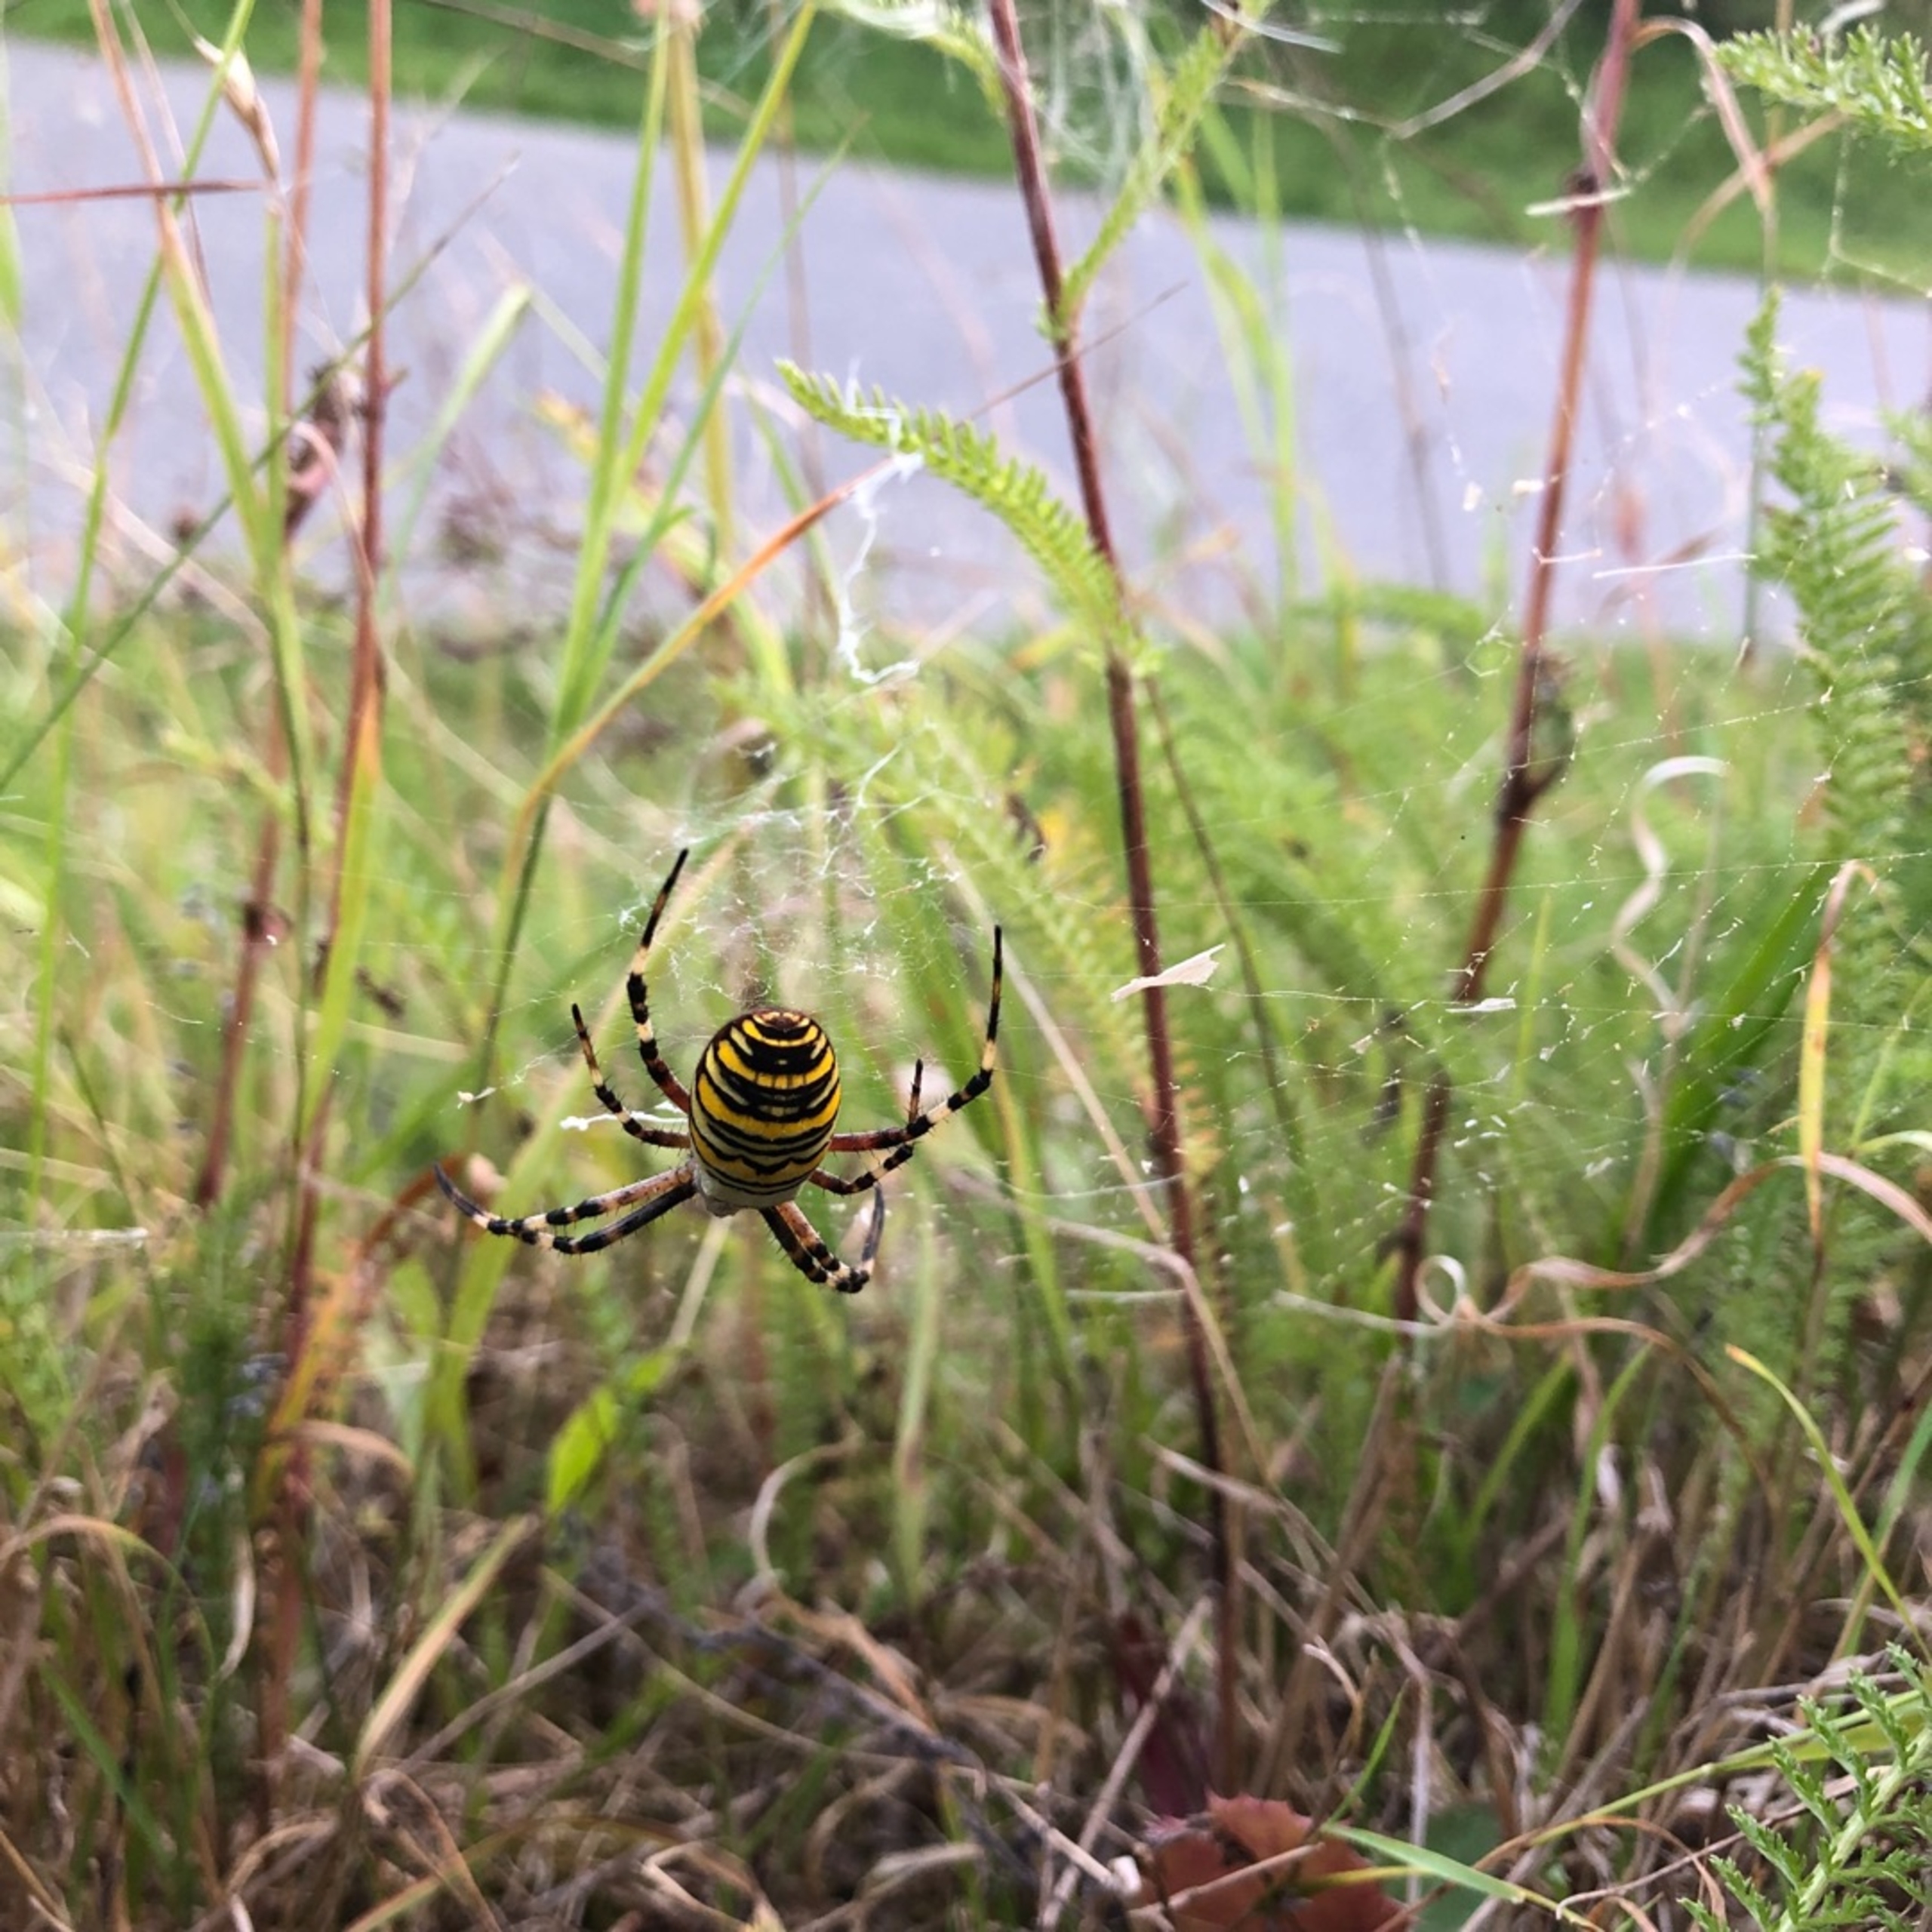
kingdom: Animalia
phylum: Arthropoda
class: Arachnida
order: Araneae
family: Araneidae
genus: Argiope
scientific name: Argiope bruennichi
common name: Hvepseedderkop
